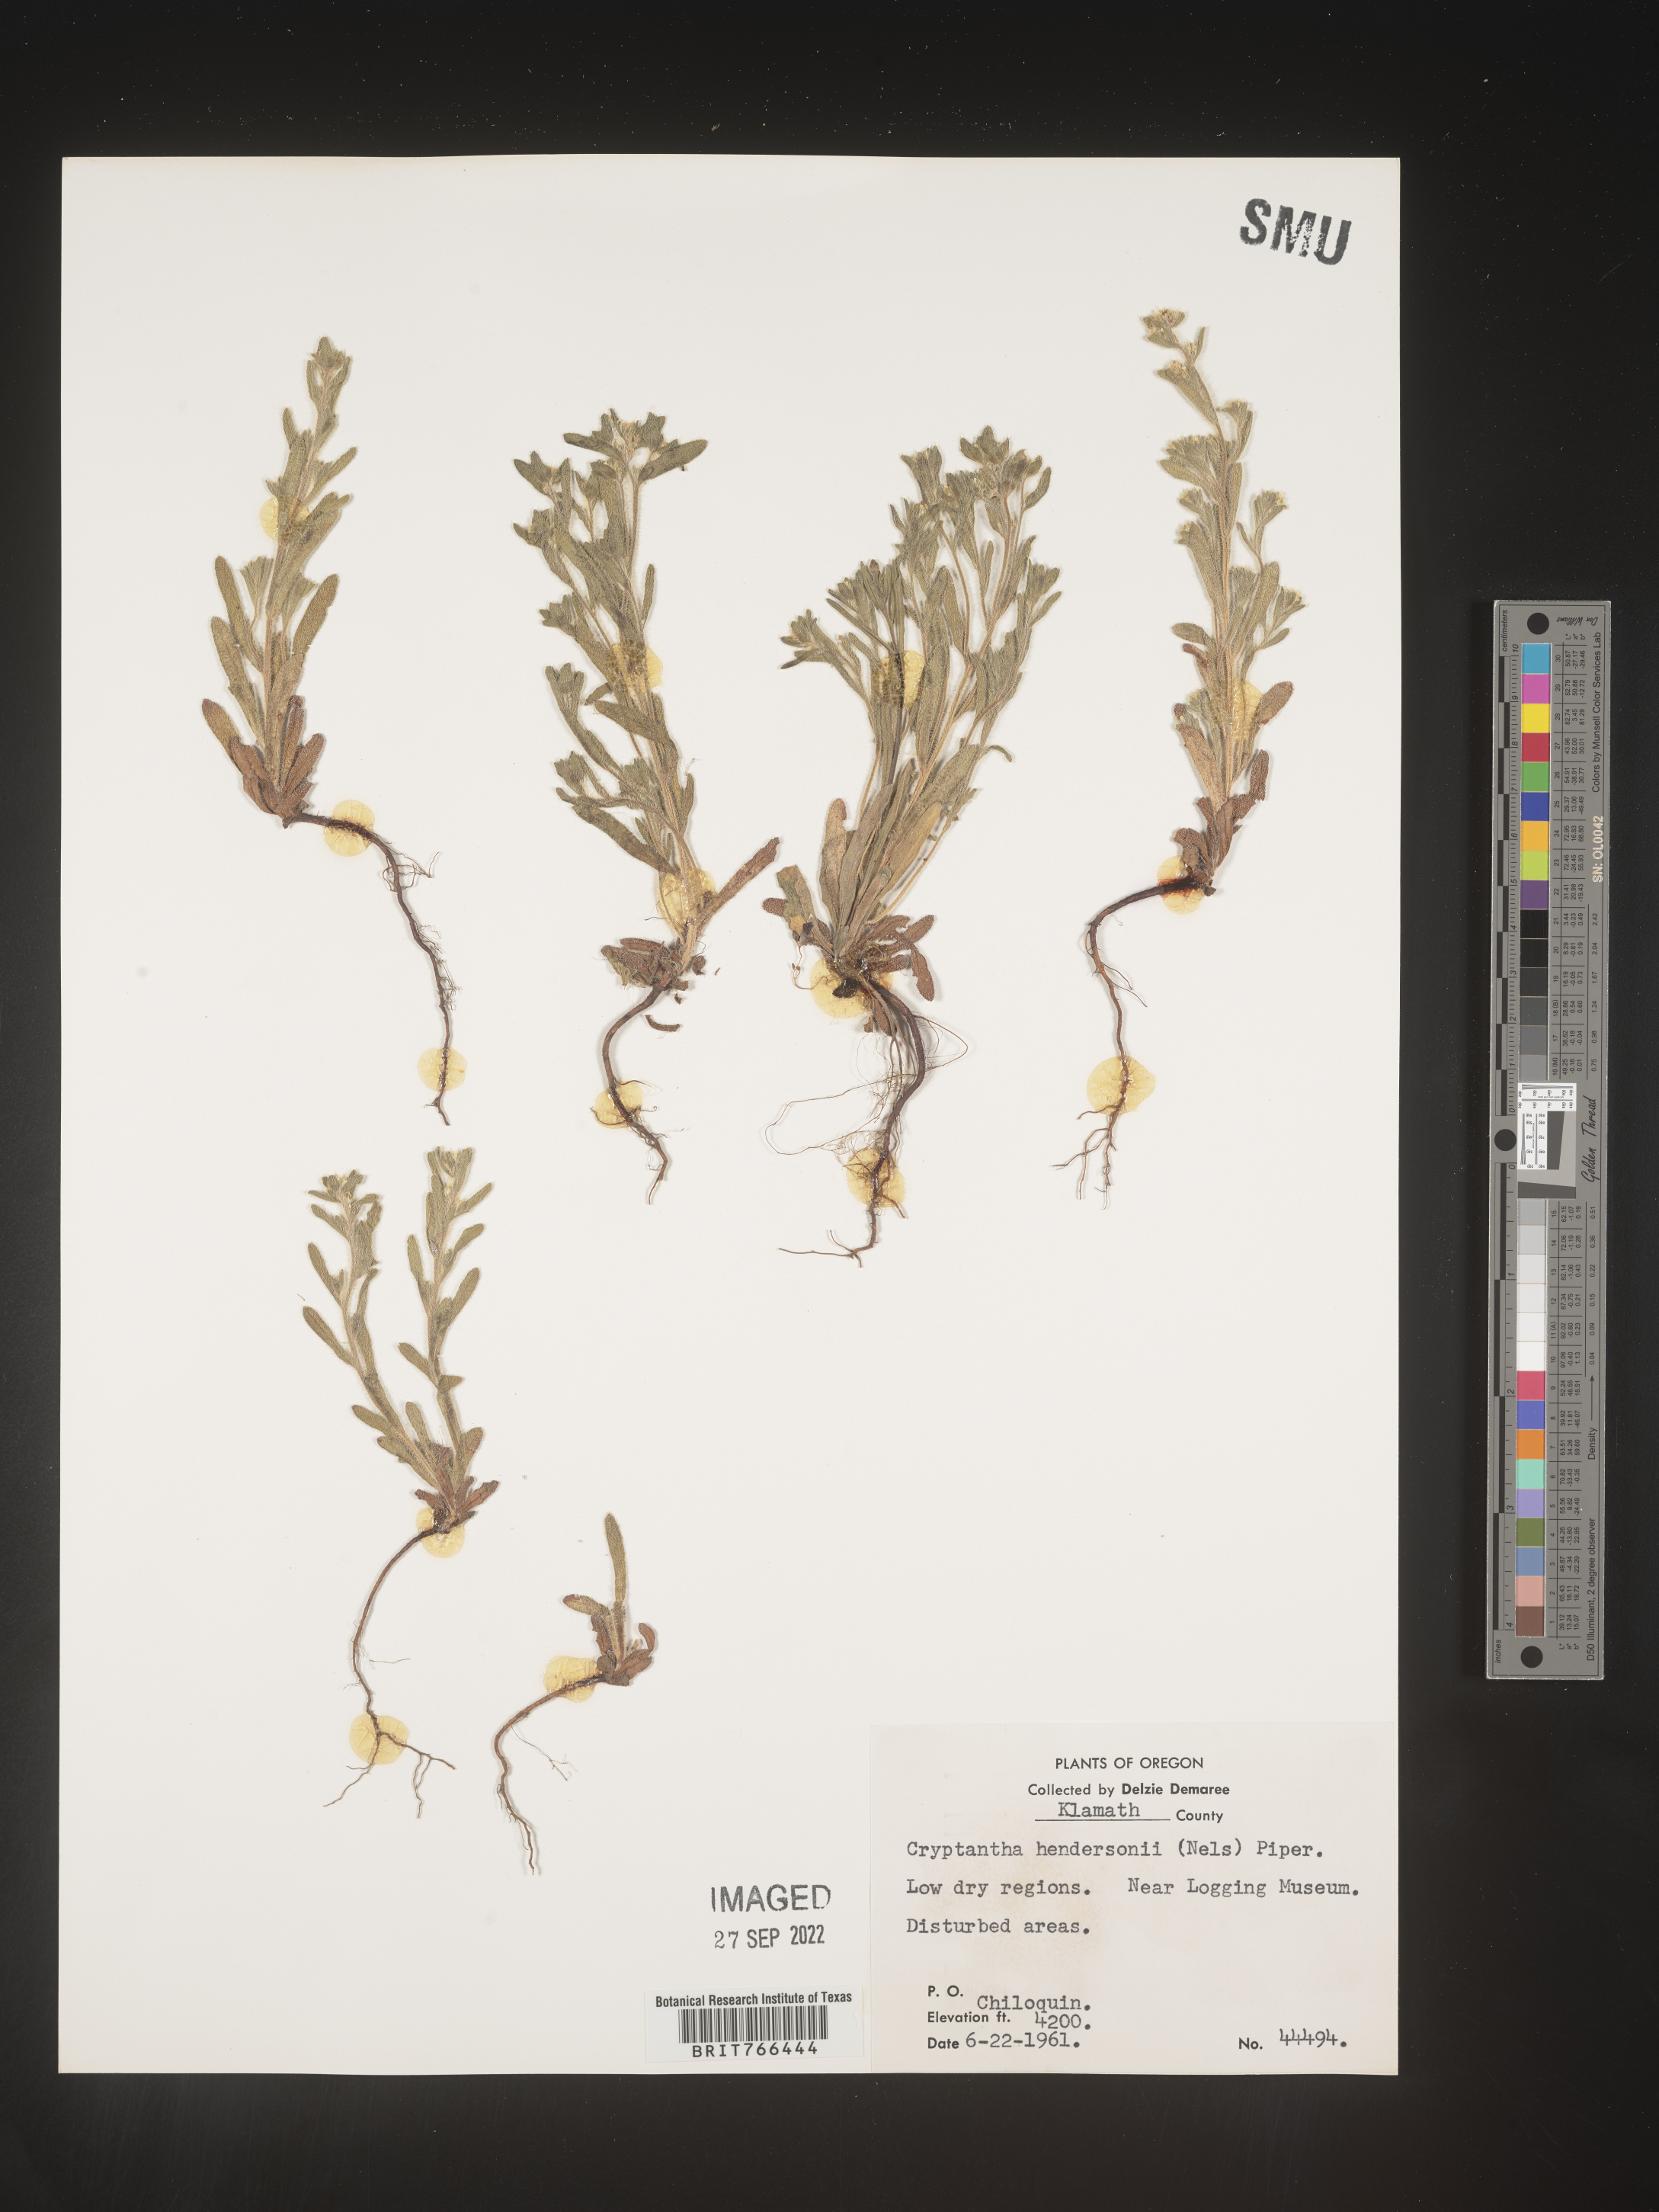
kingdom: Plantae
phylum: Tracheophyta
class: Magnoliopsida
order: Boraginales
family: Boraginaceae
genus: Cryptantha
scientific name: Cryptantha
